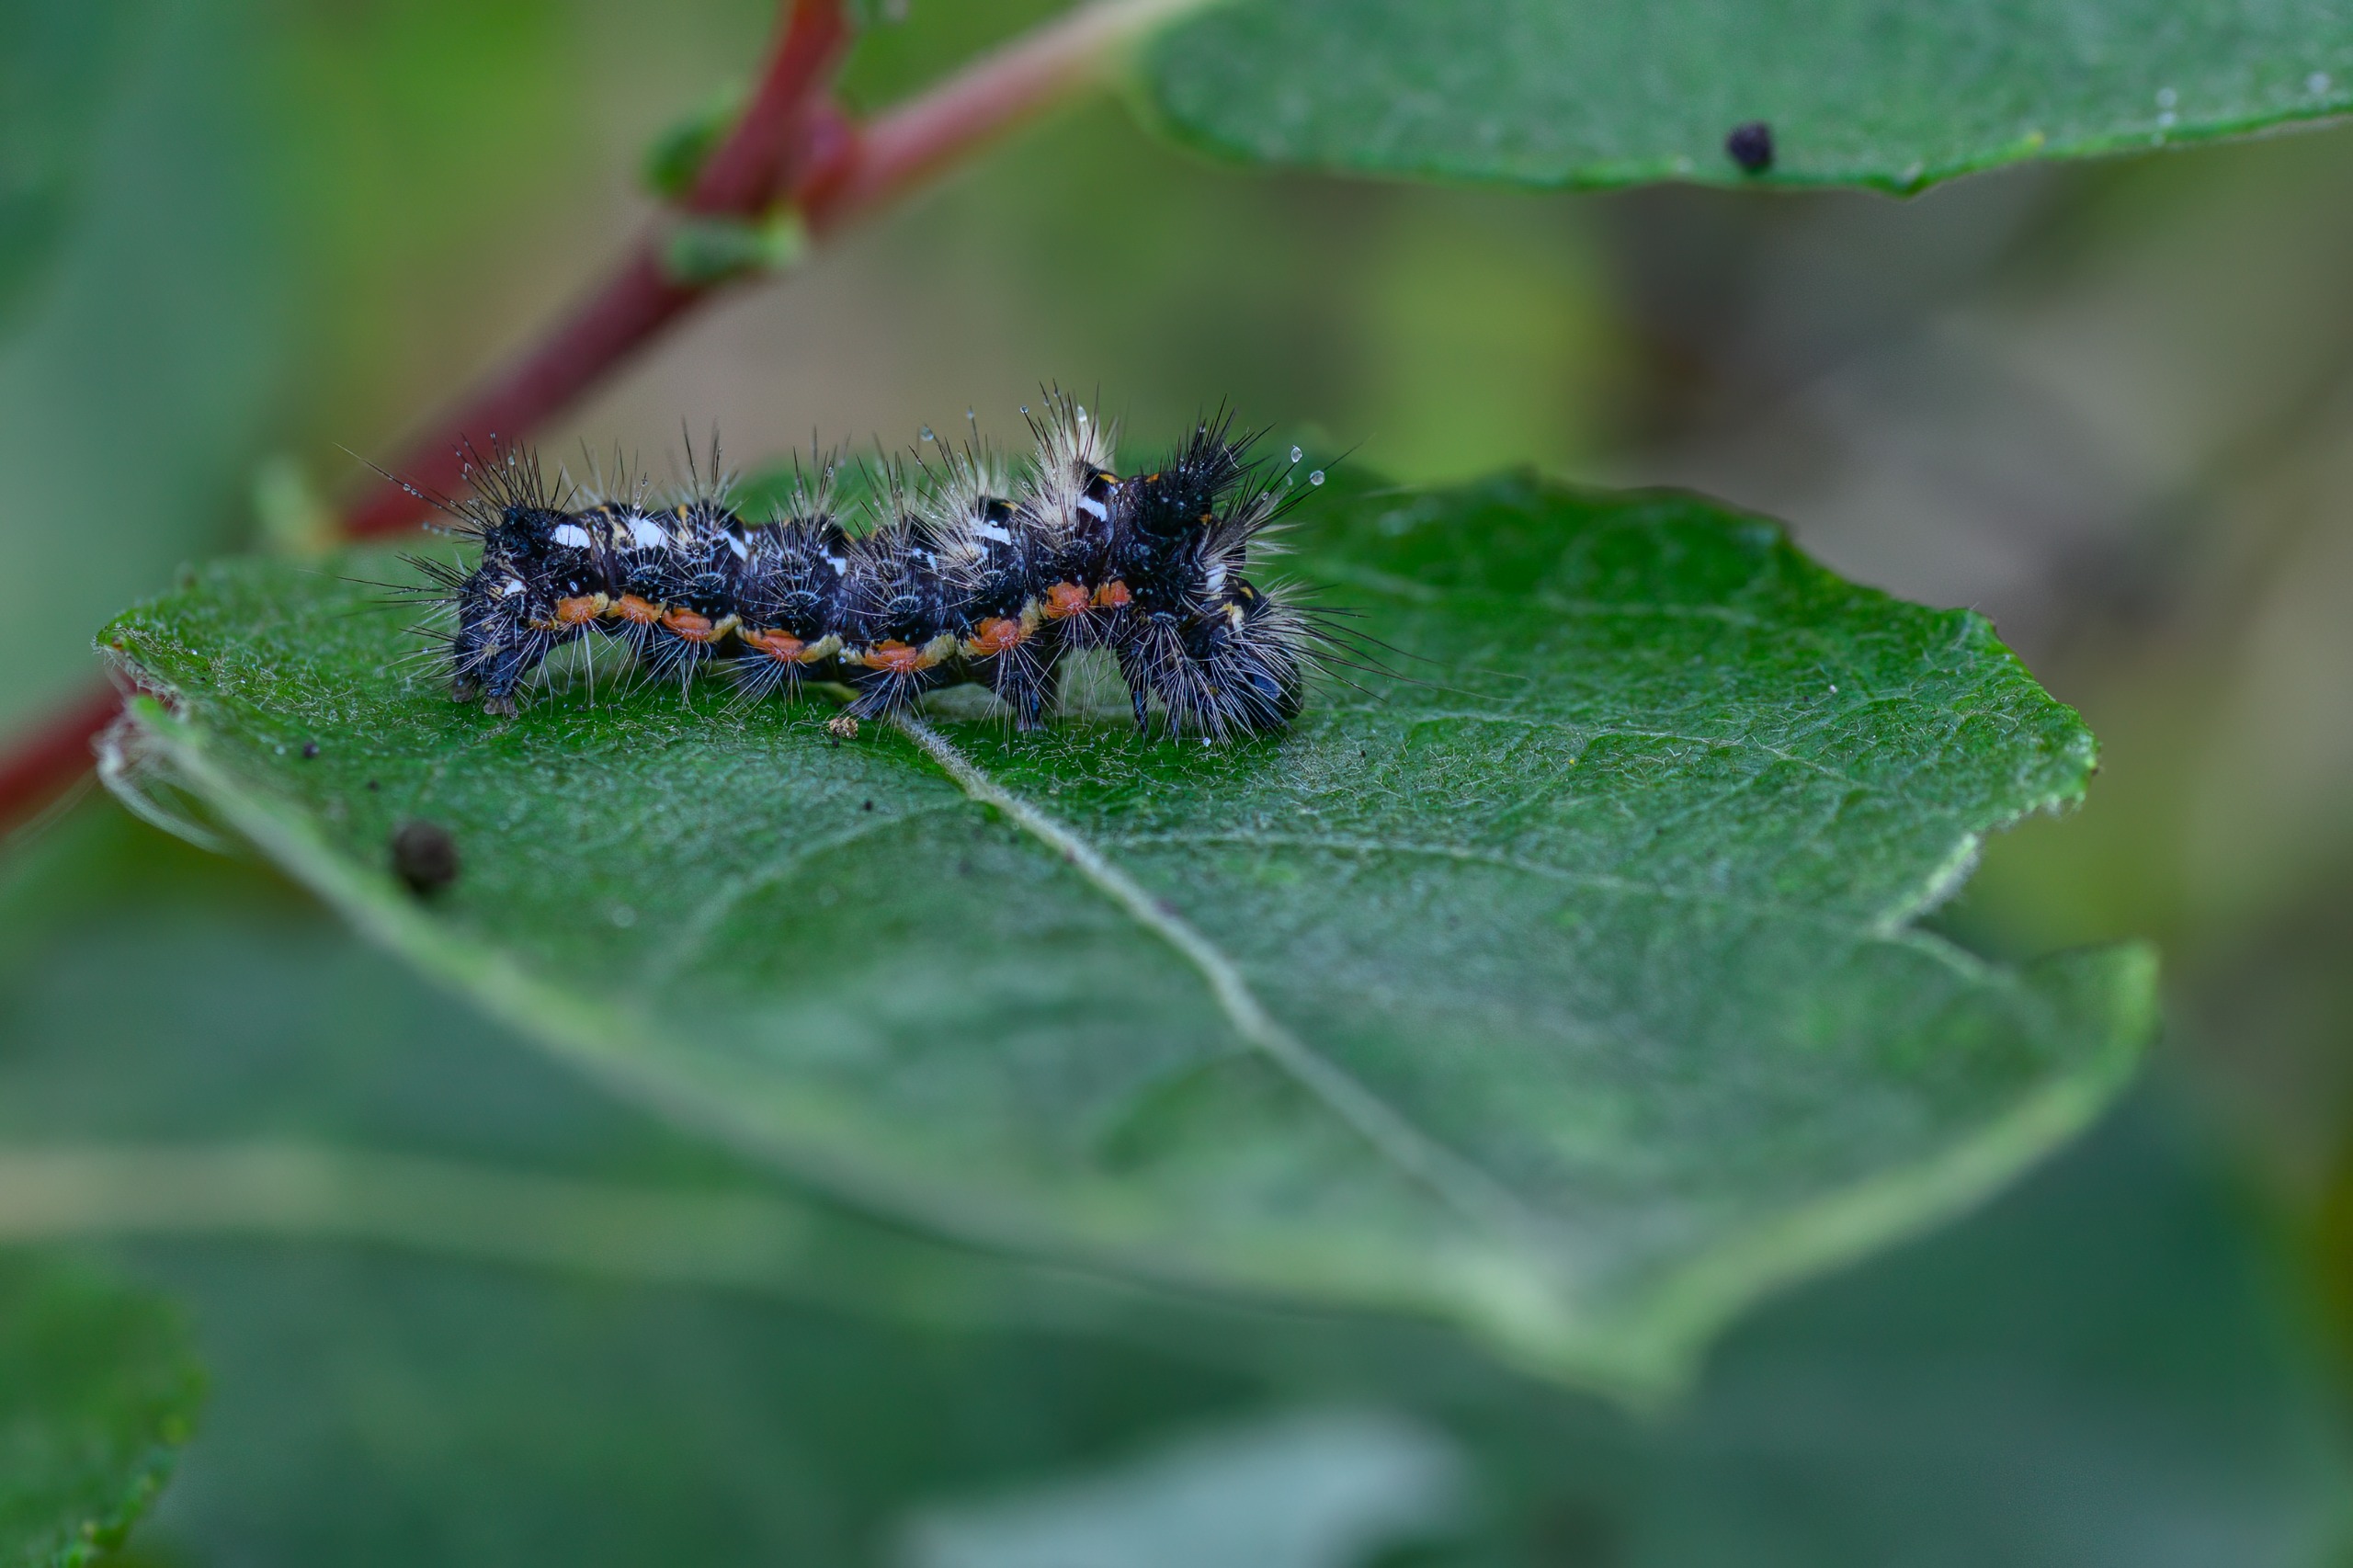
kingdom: Animalia
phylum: Arthropoda
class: Insecta
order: Lepidoptera
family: Noctuidae
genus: Acronicta
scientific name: Acronicta rumicis
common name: Syreugle
